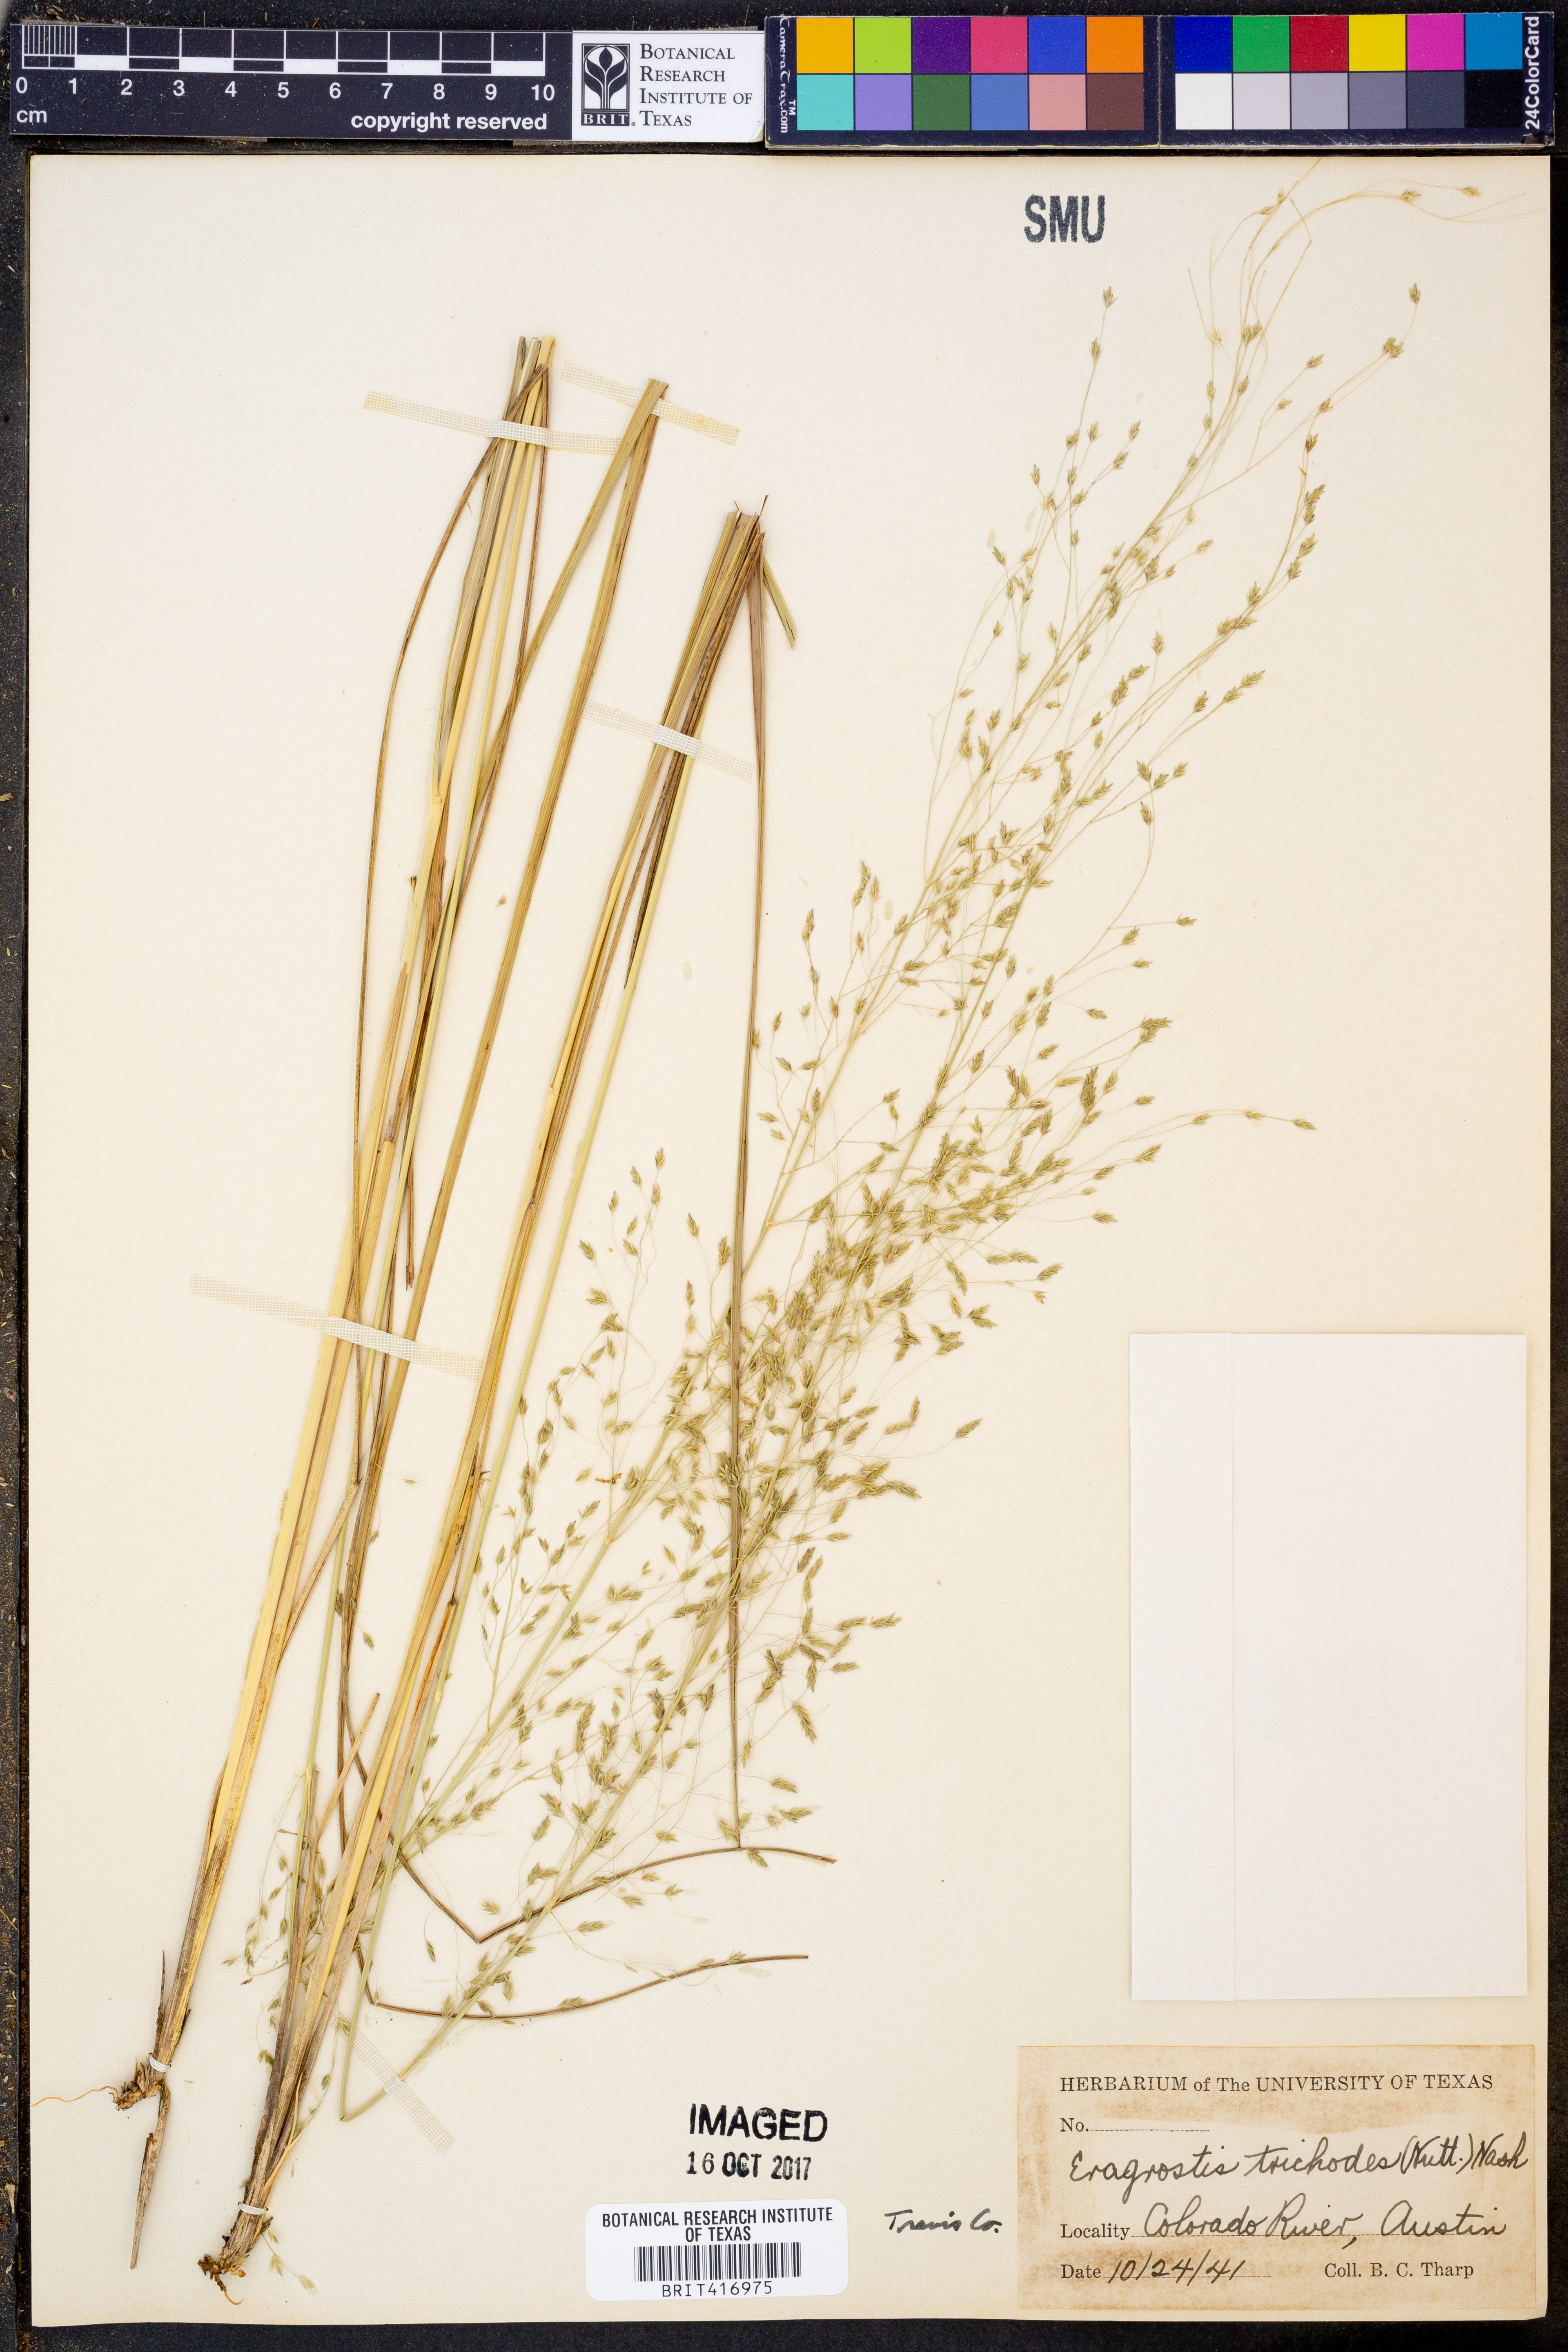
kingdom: Plantae
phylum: Tracheophyta
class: Liliopsida
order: Poales
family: Poaceae
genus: Eragrostis
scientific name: Eragrostis trichodes
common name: Sand love grass
